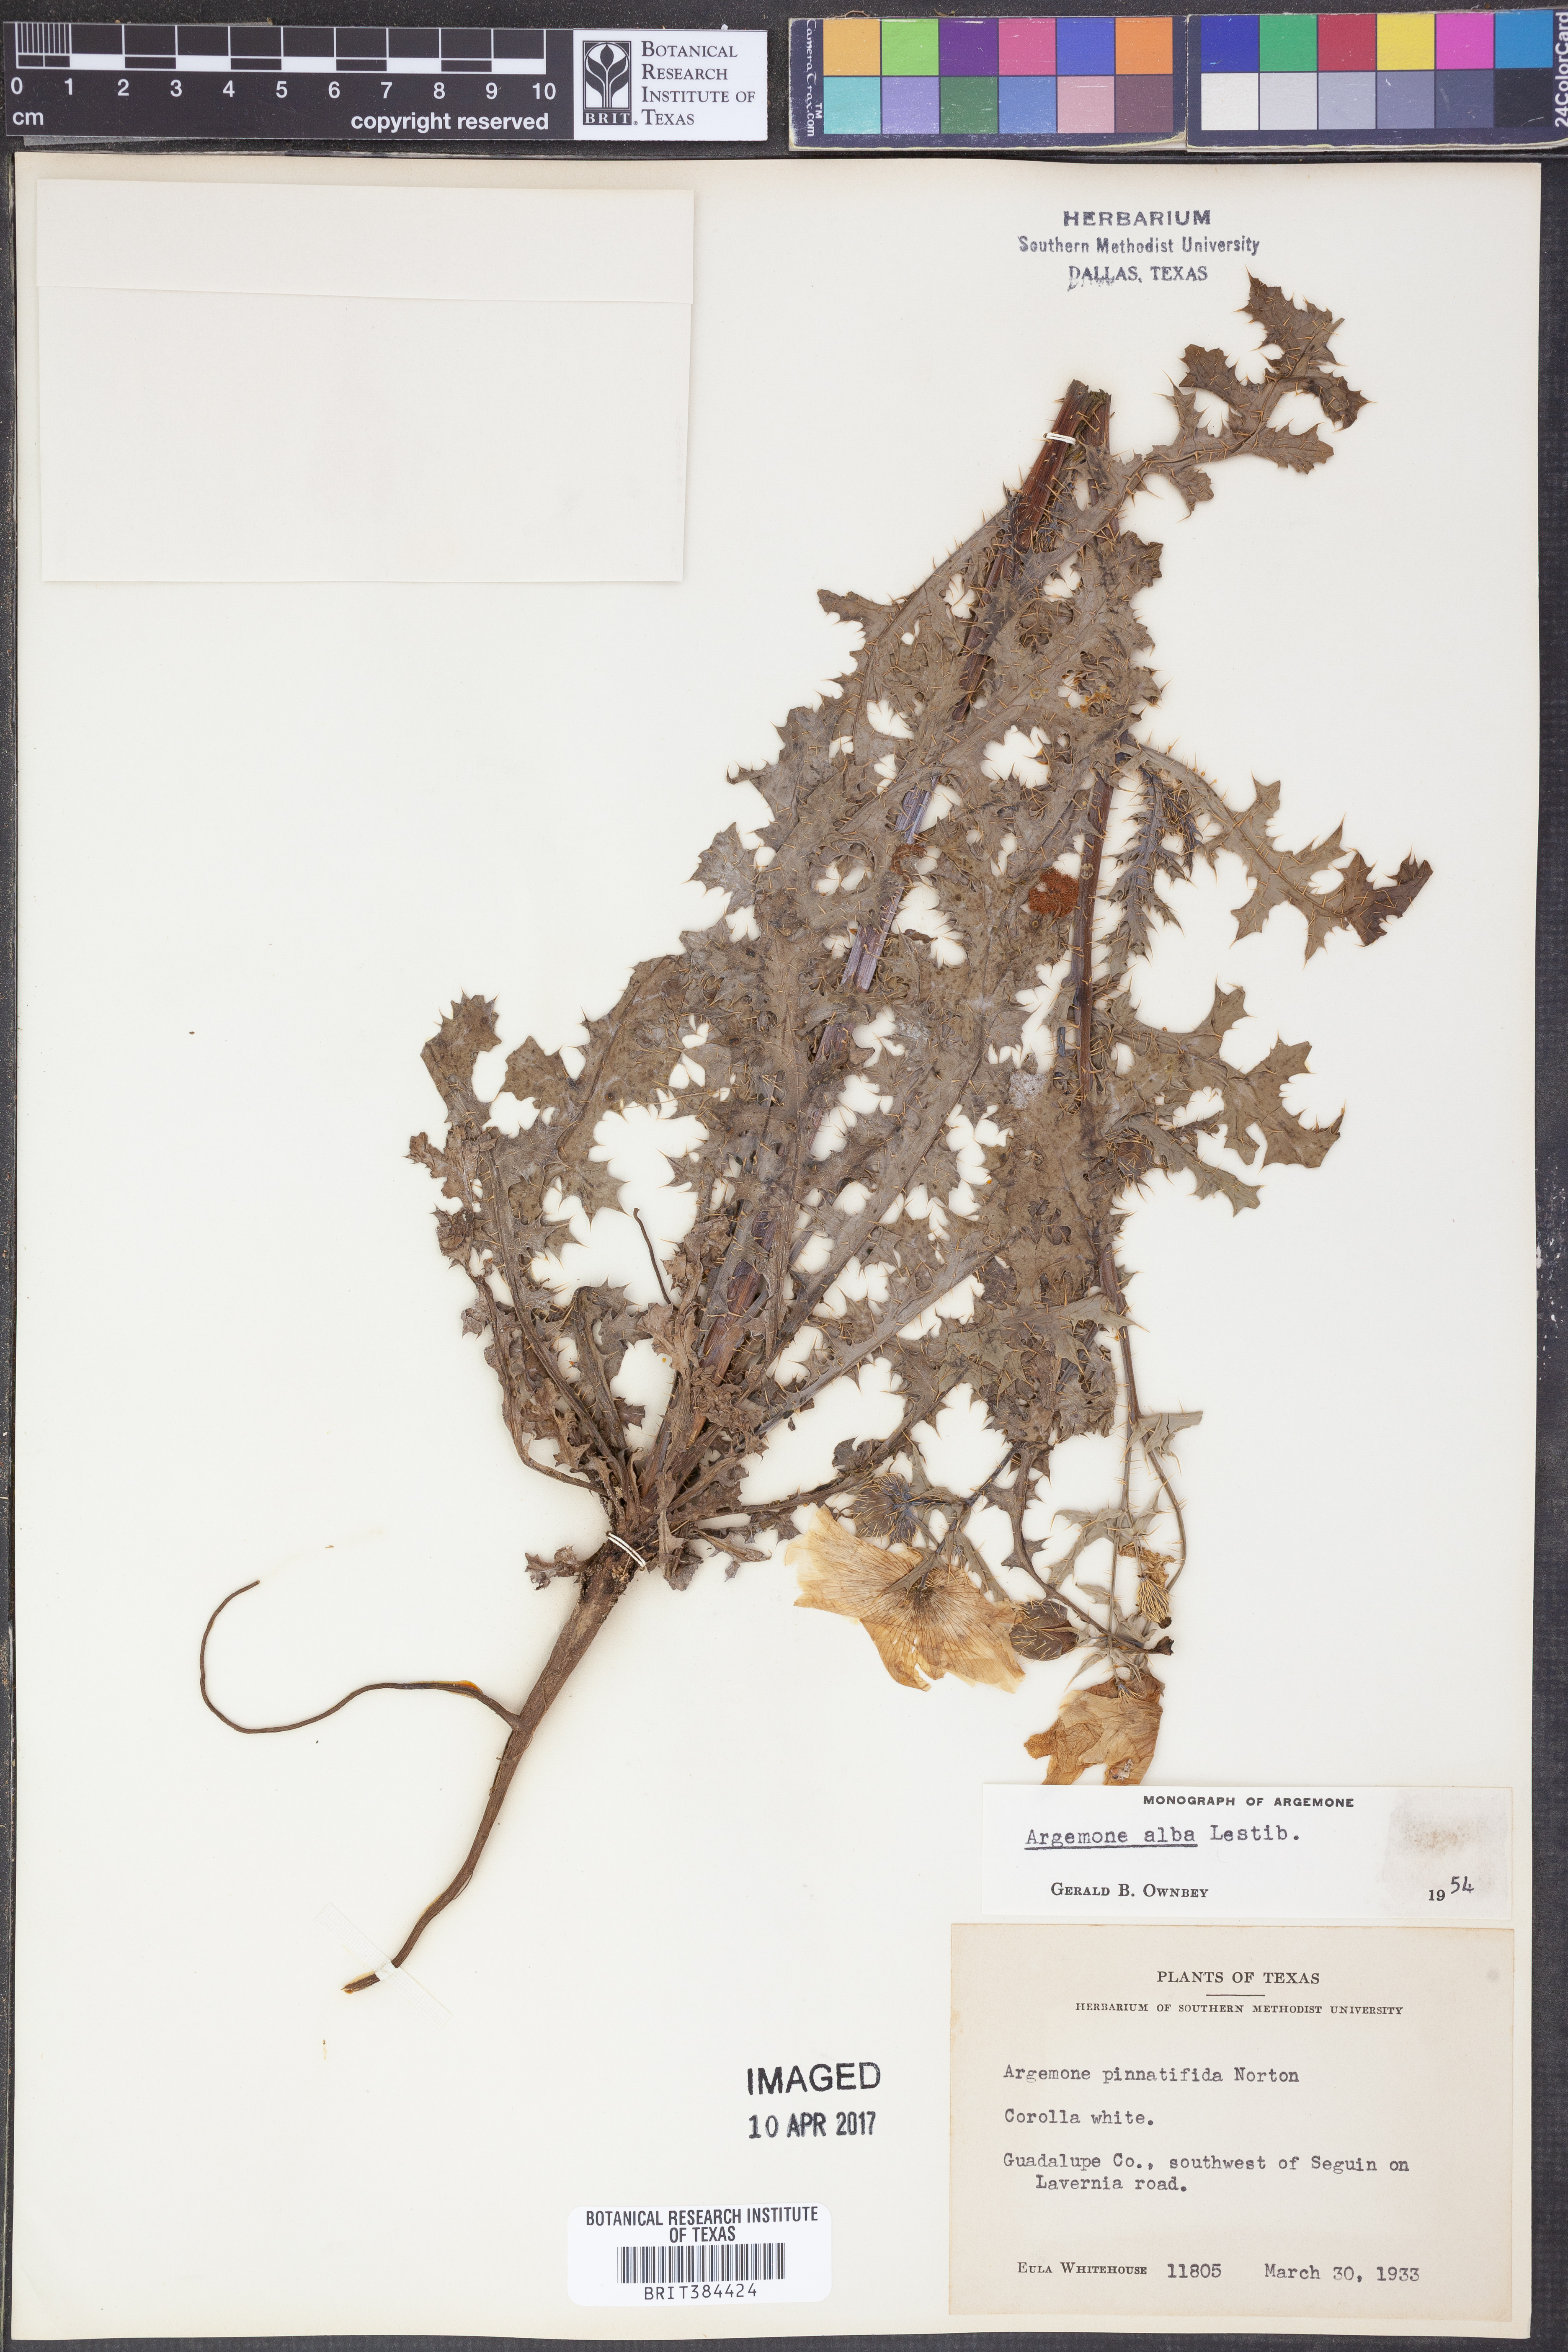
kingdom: Plantae
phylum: Tracheophyta
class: Magnoliopsida
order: Ranunculales
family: Papaveraceae
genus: Argemone
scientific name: Argemone albiflora
